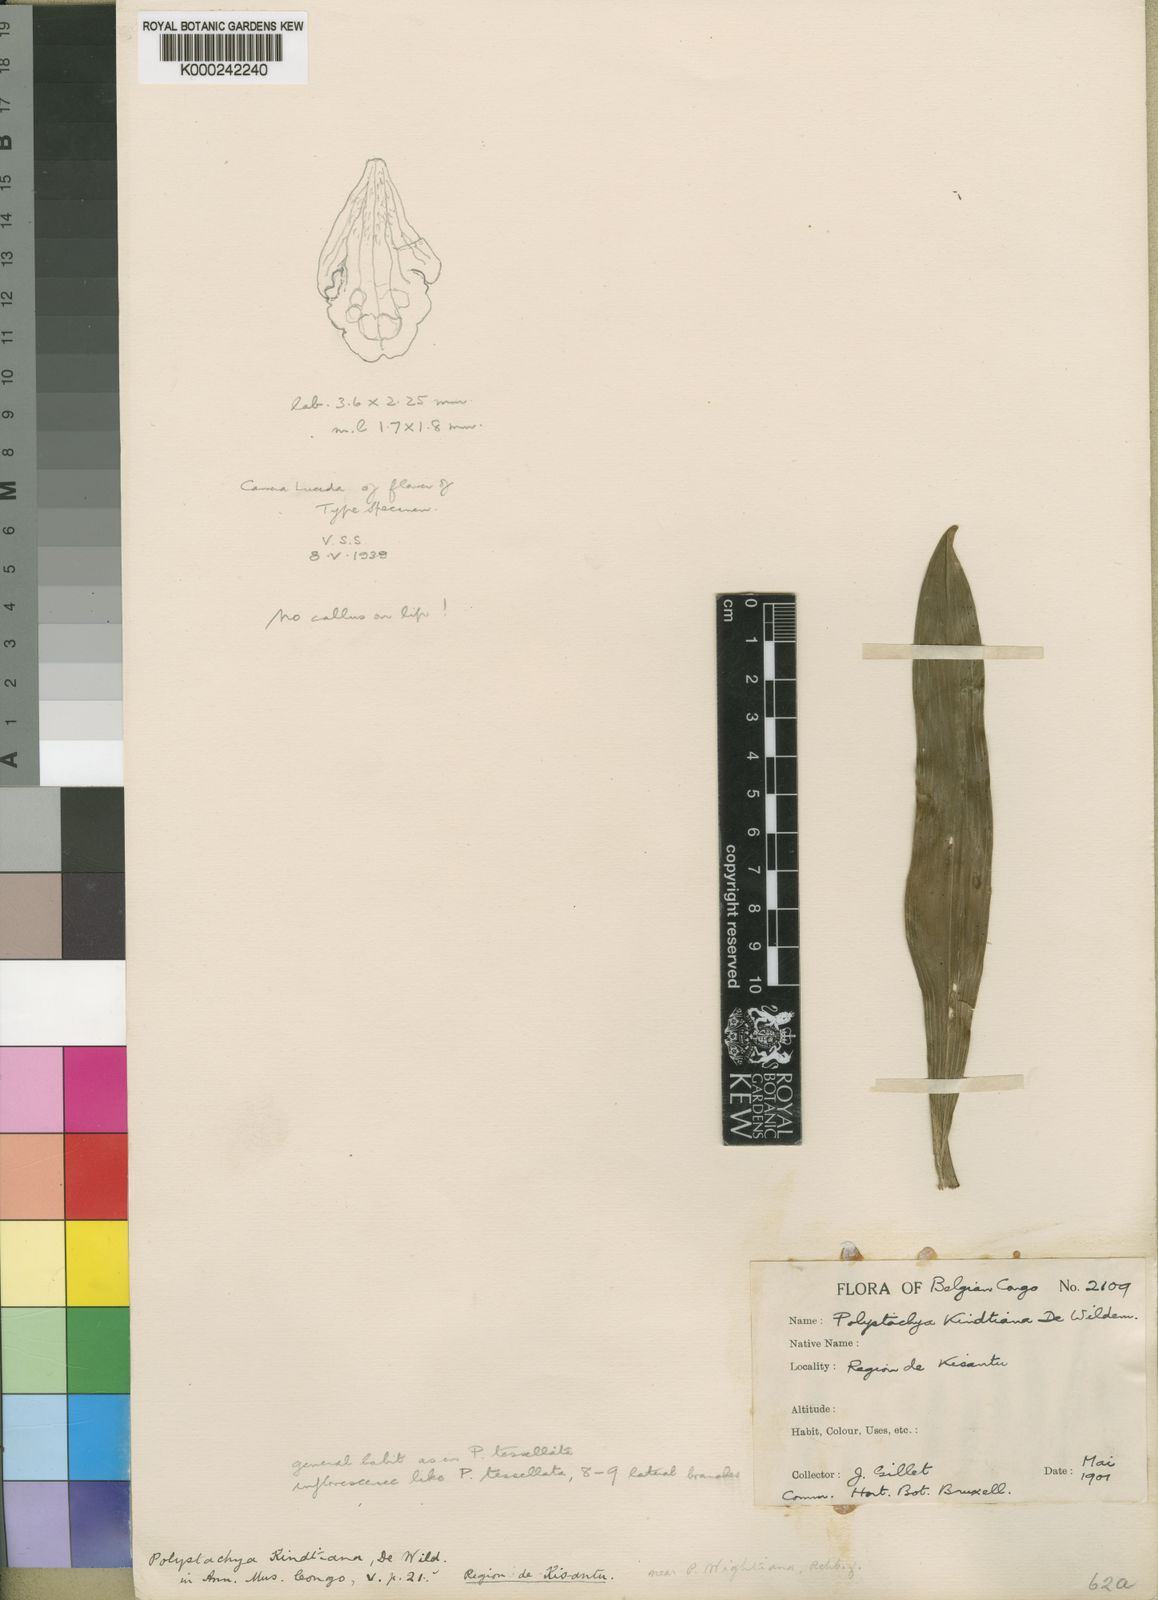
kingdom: Plantae
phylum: Tracheophyta
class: Liliopsida
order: Asparagales
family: Orchidaceae
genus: Polystachya
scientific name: Polystachya modesta
